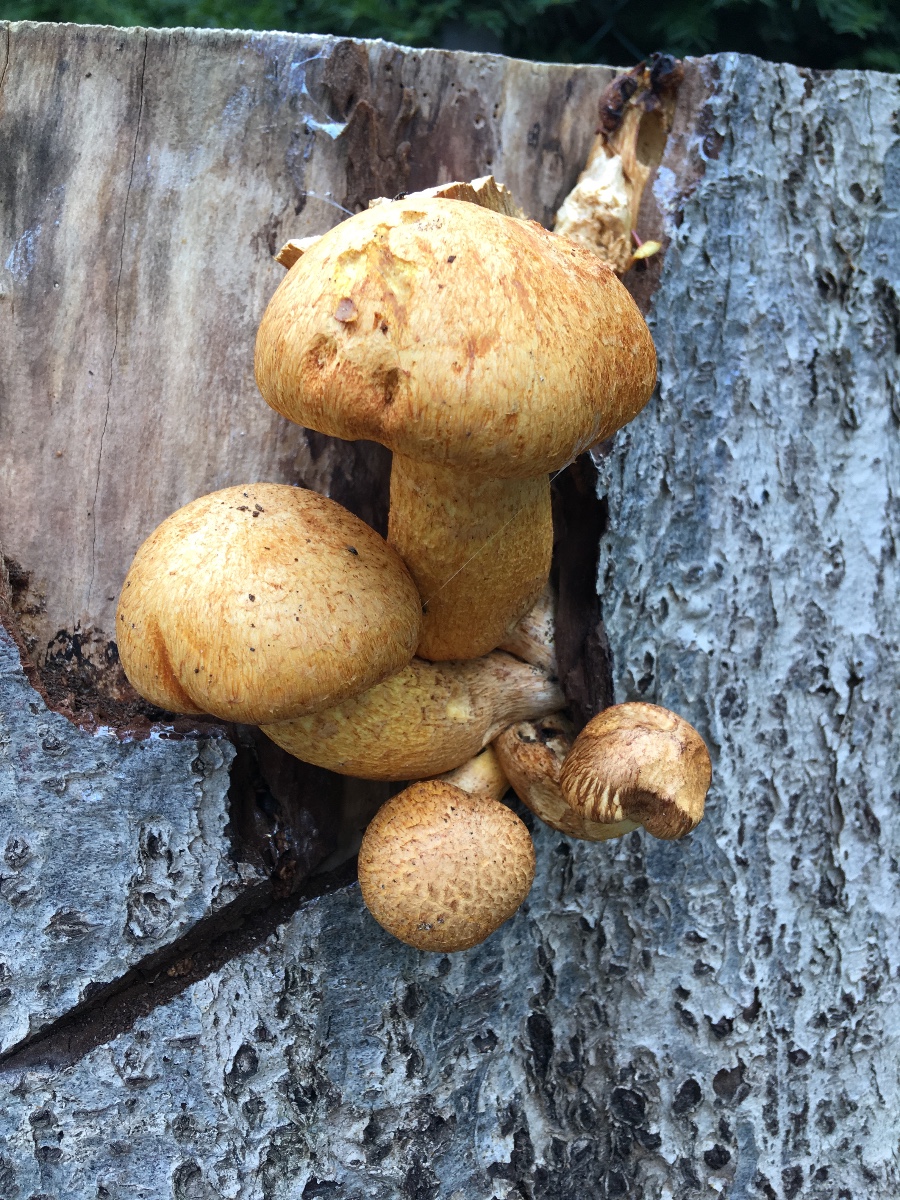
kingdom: Fungi
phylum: Basidiomycota
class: Agaricomycetes
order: Agaricales
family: Hymenogastraceae
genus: Gymnopilus
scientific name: Gymnopilus spectabilis
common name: fibret flammehat
